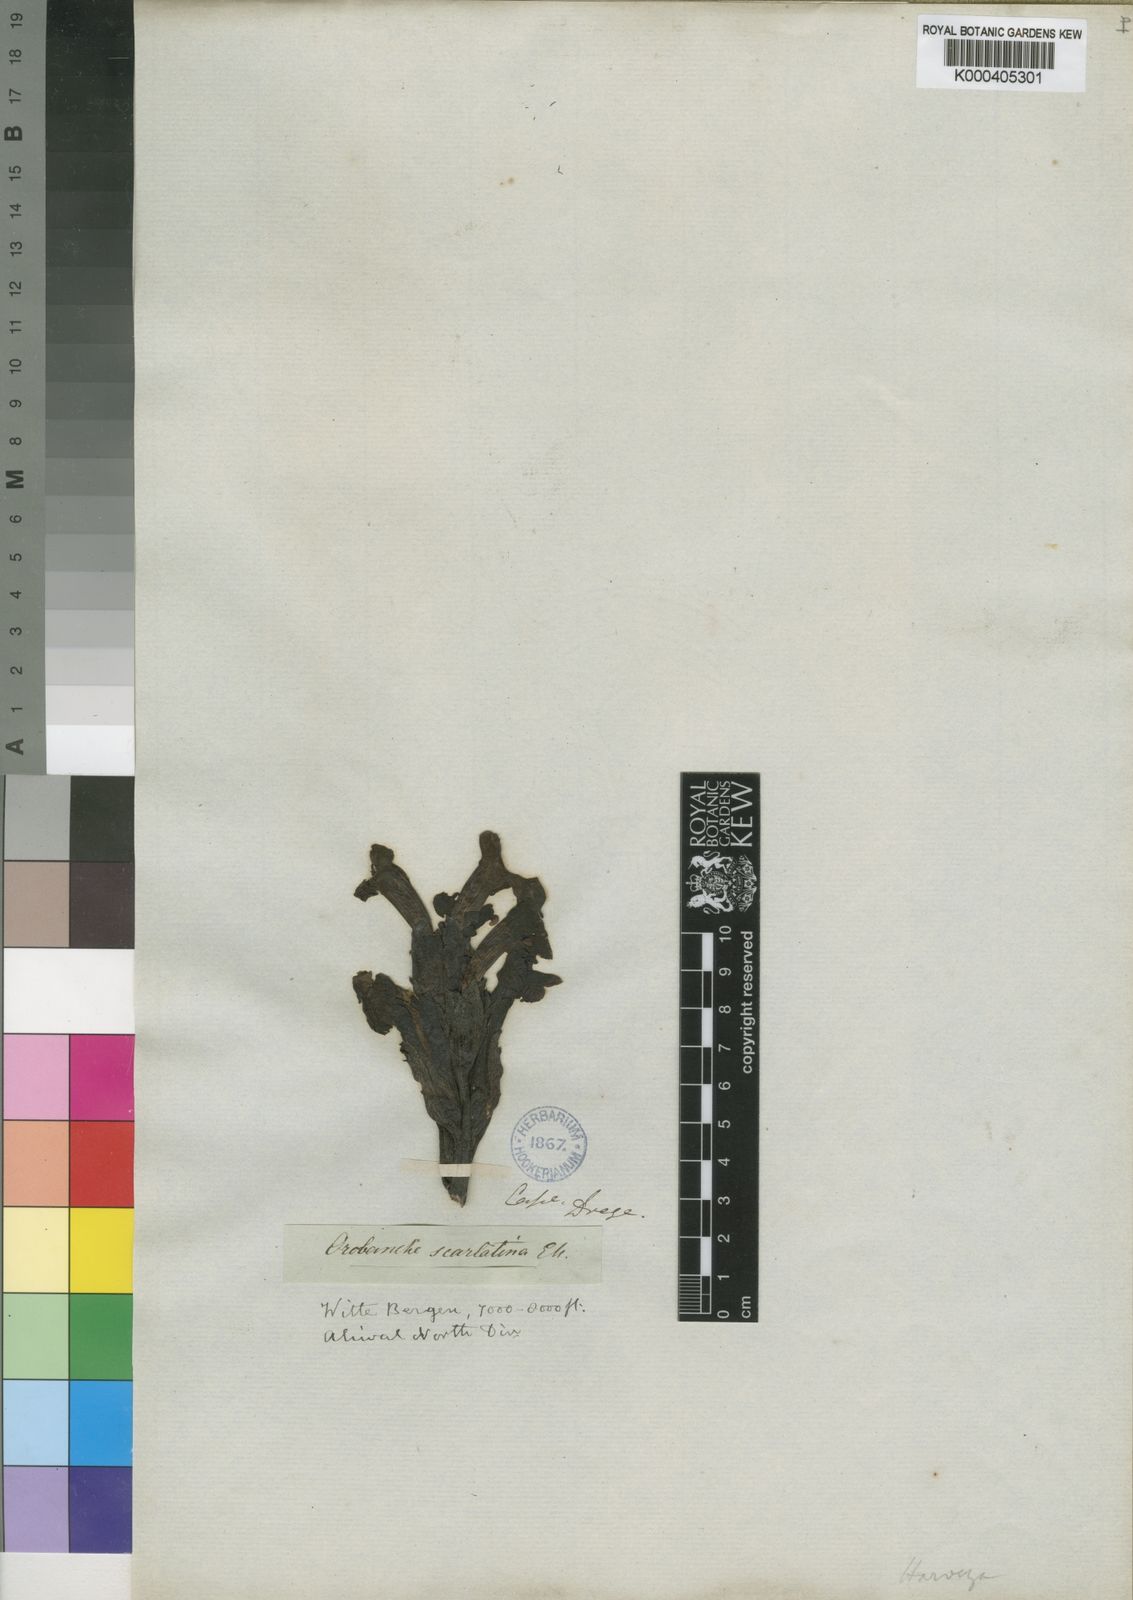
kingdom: Plantae
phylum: Tracheophyta
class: Magnoliopsida
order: Lamiales
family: Orobanchaceae
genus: Harveya
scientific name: Harveya
